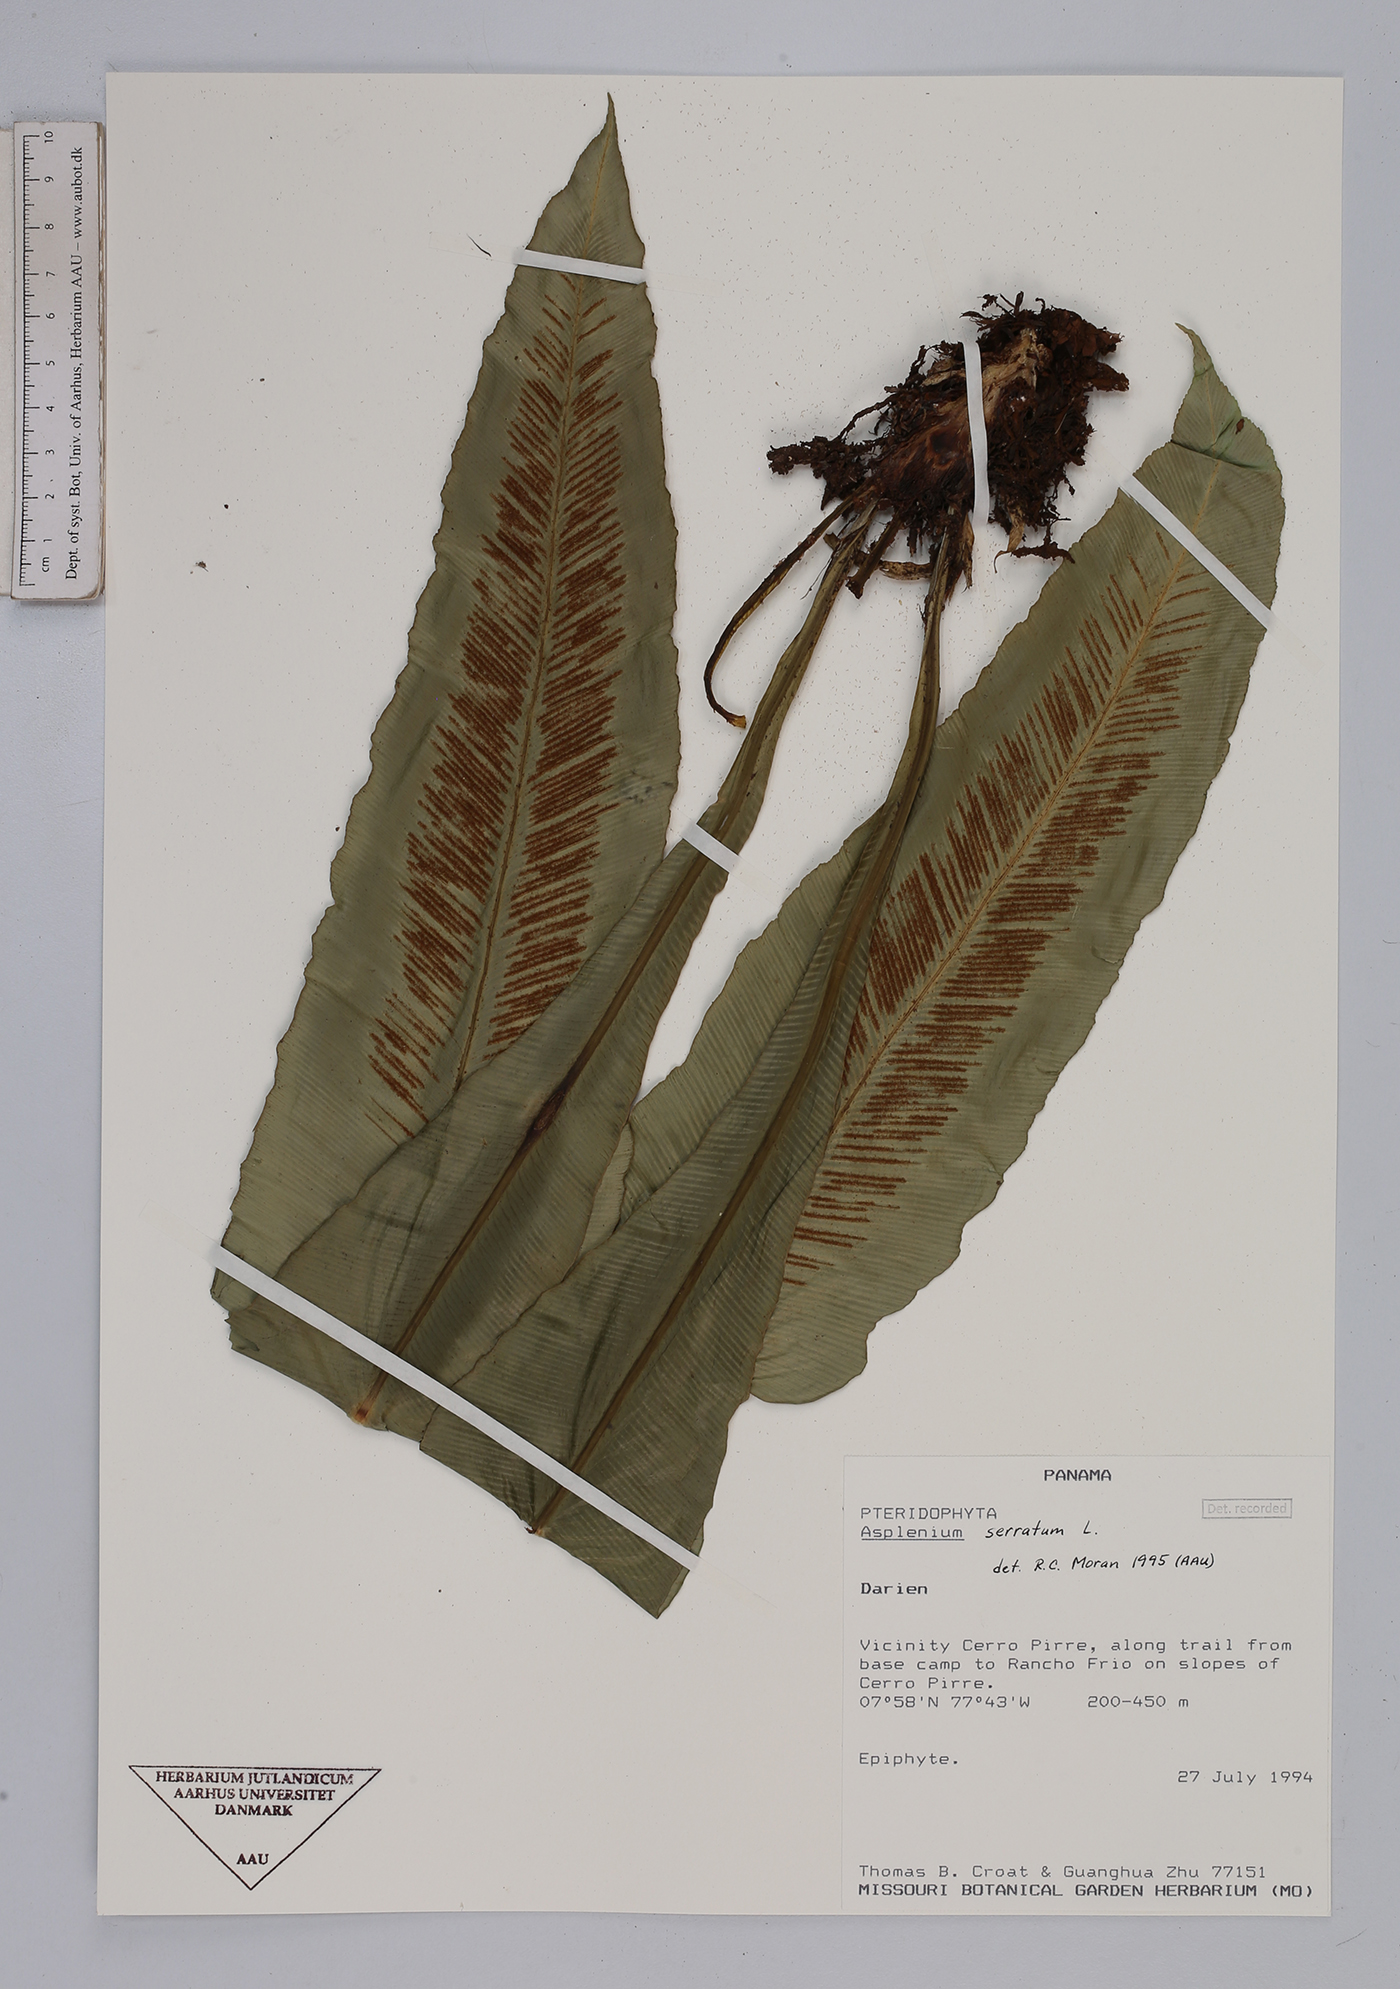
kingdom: Plantae
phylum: Tracheophyta
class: Polypodiopsida
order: Polypodiales
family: Aspleniaceae
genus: Asplenium
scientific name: Asplenium serratum
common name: Wild birdnest fern
